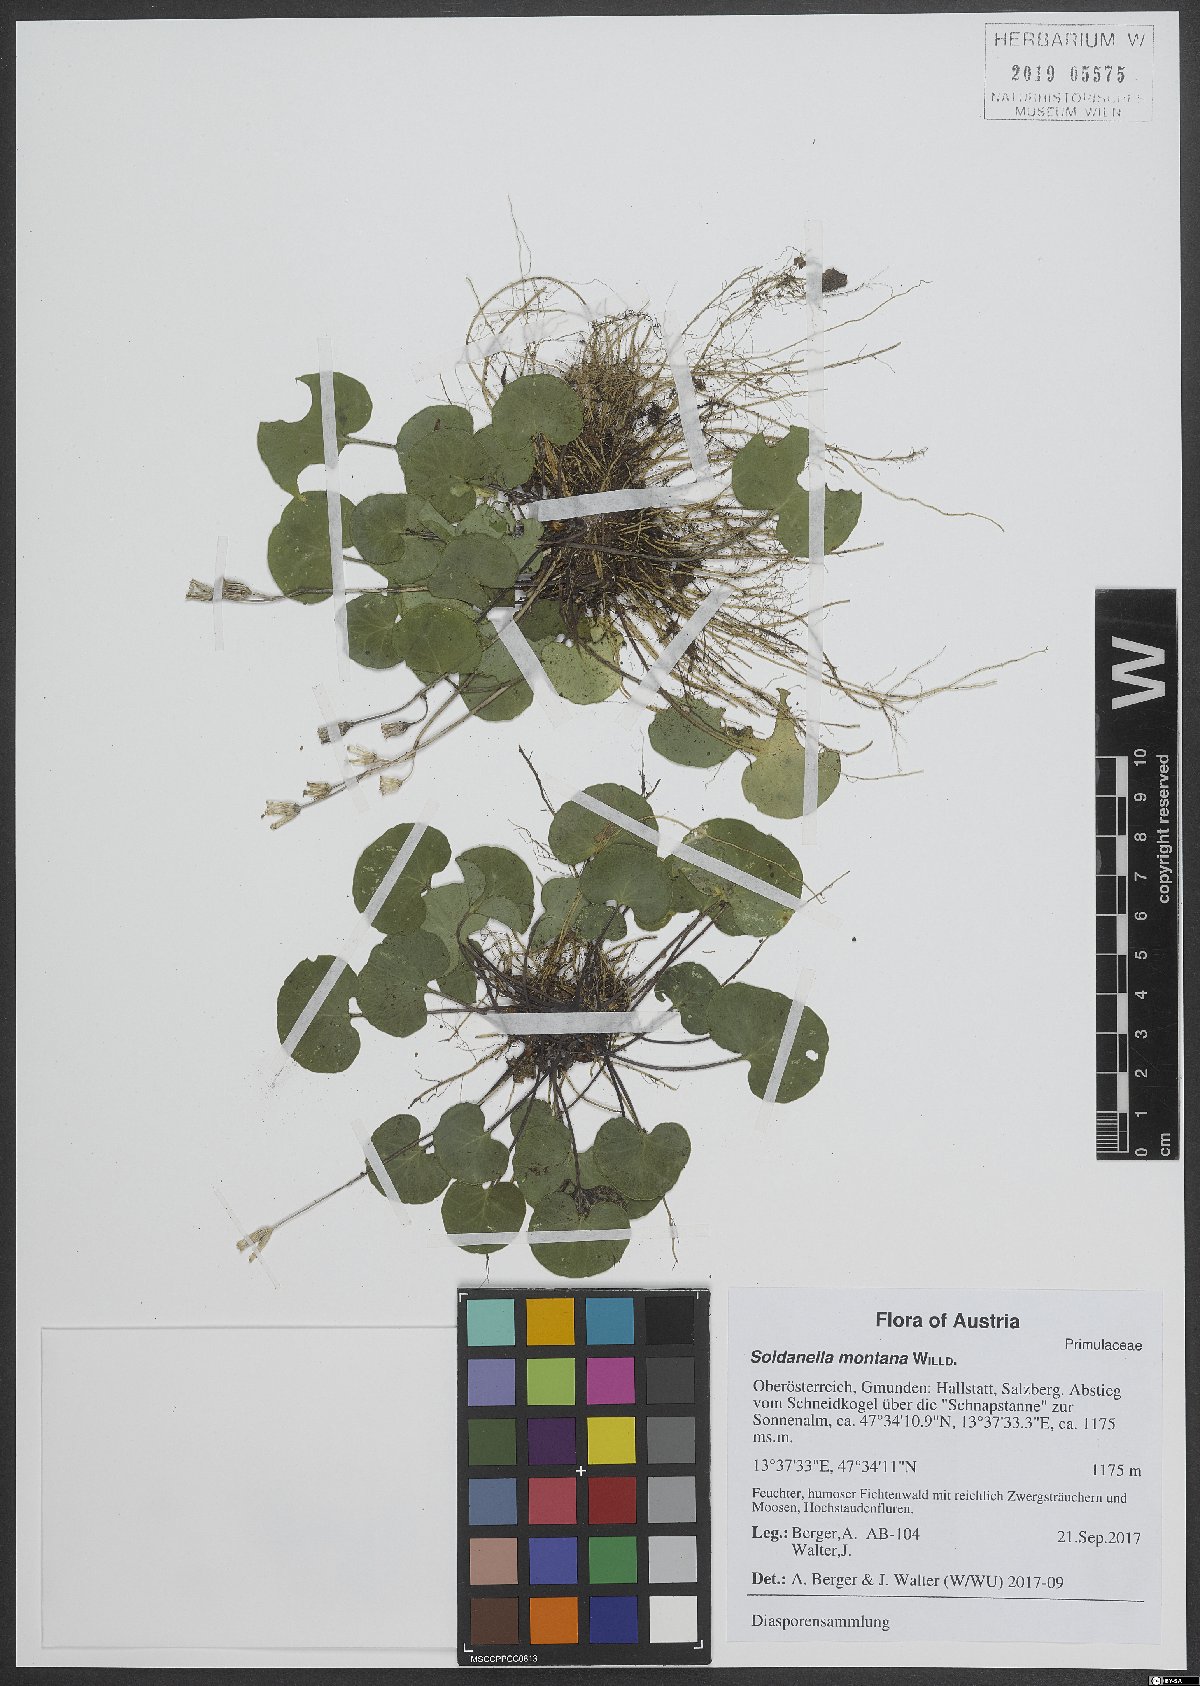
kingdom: Plantae
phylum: Tracheophyta
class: Magnoliopsida
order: Ericales
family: Primulaceae
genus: Soldanella
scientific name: Soldanella montana
